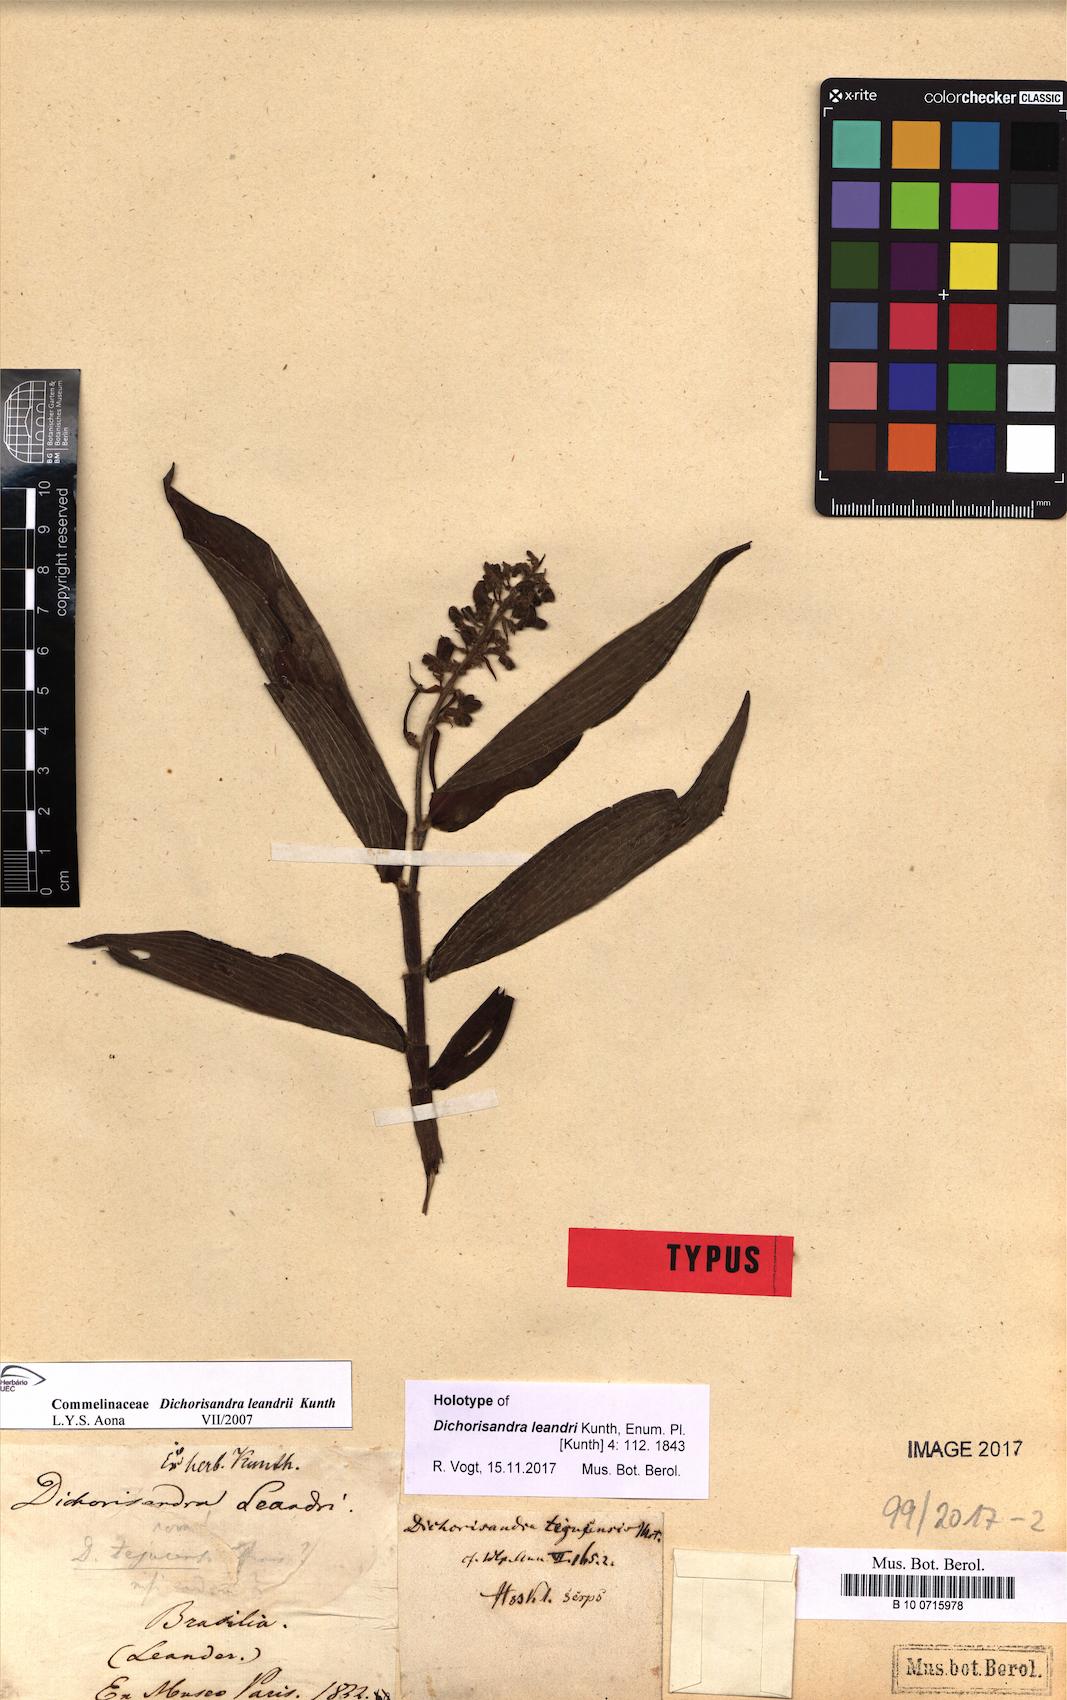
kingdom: Plantae
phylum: Tracheophyta
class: Liliopsida
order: Commelinales
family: Commelinaceae
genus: Dichorisandra
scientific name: Dichorisandra tejucensis
